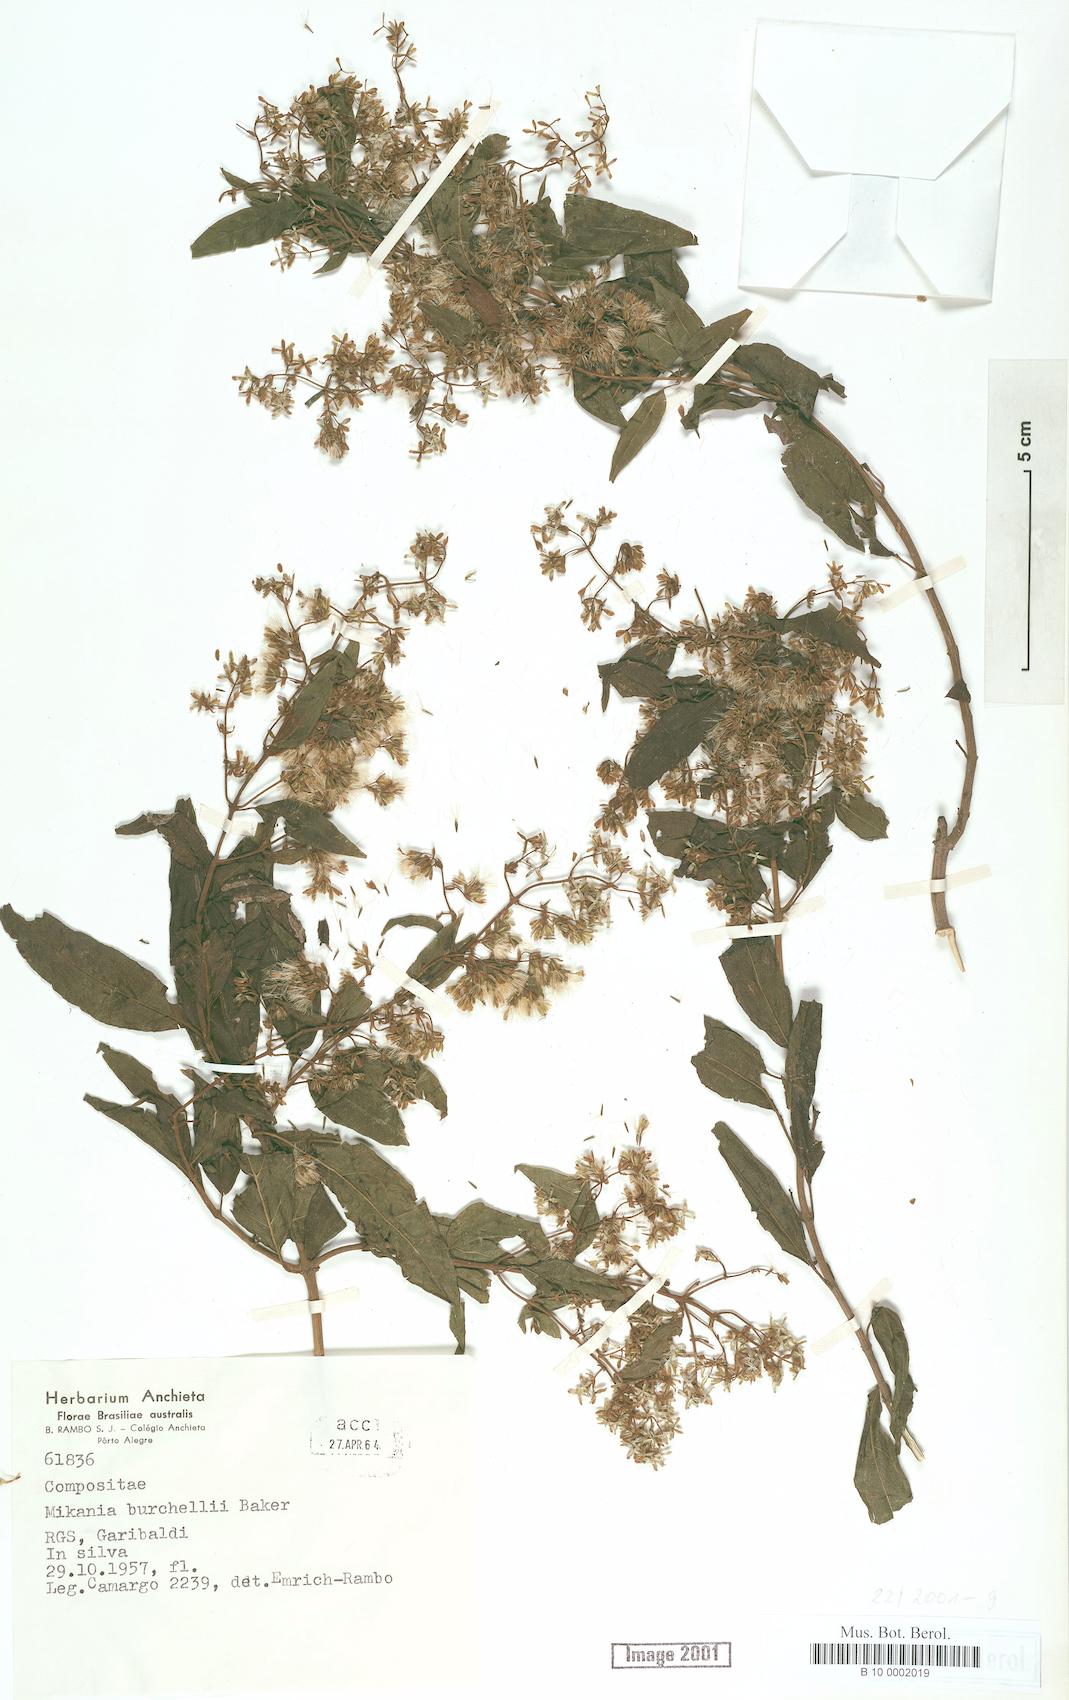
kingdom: Plantae
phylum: Tracheophyta
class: Magnoliopsida
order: Asterales
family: Asteraceae
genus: Mikania
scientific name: Mikania burchellii
